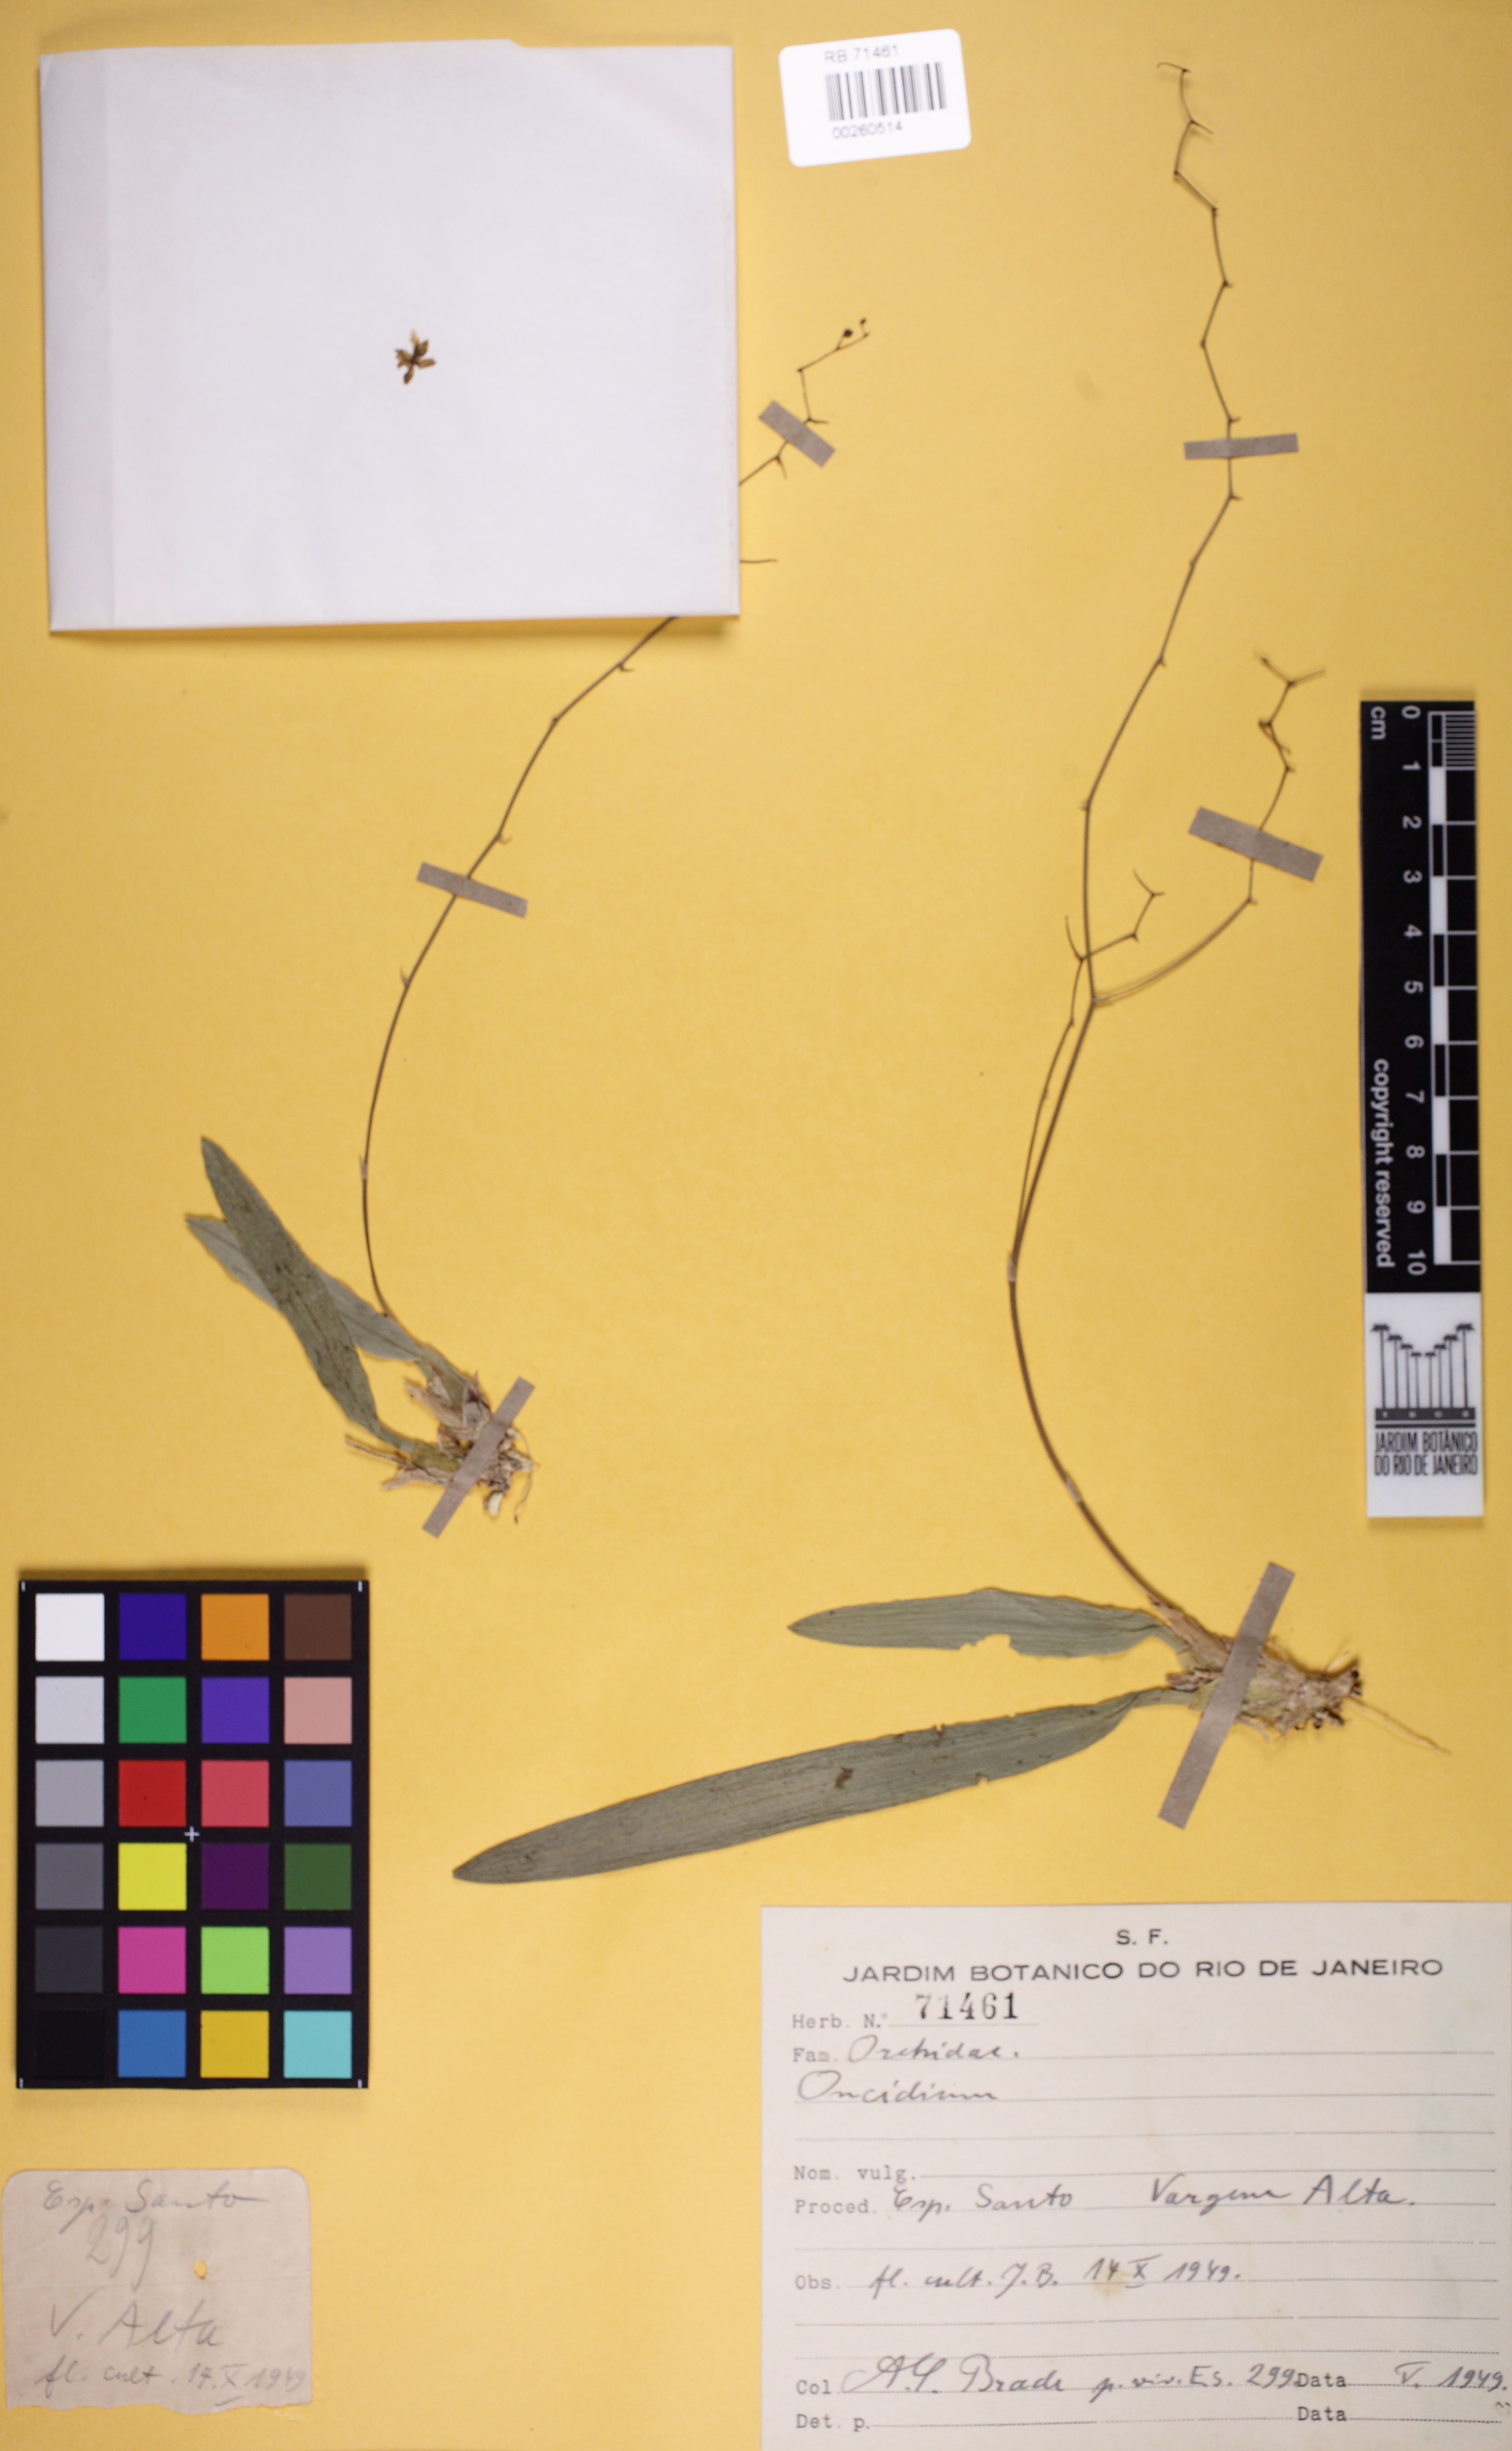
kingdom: Plantae
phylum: Tracheophyta
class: Liliopsida
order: Asparagales
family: Orchidaceae
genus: Grandiphyllum
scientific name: Grandiphyllum auricula
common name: Mule-ear orchid
